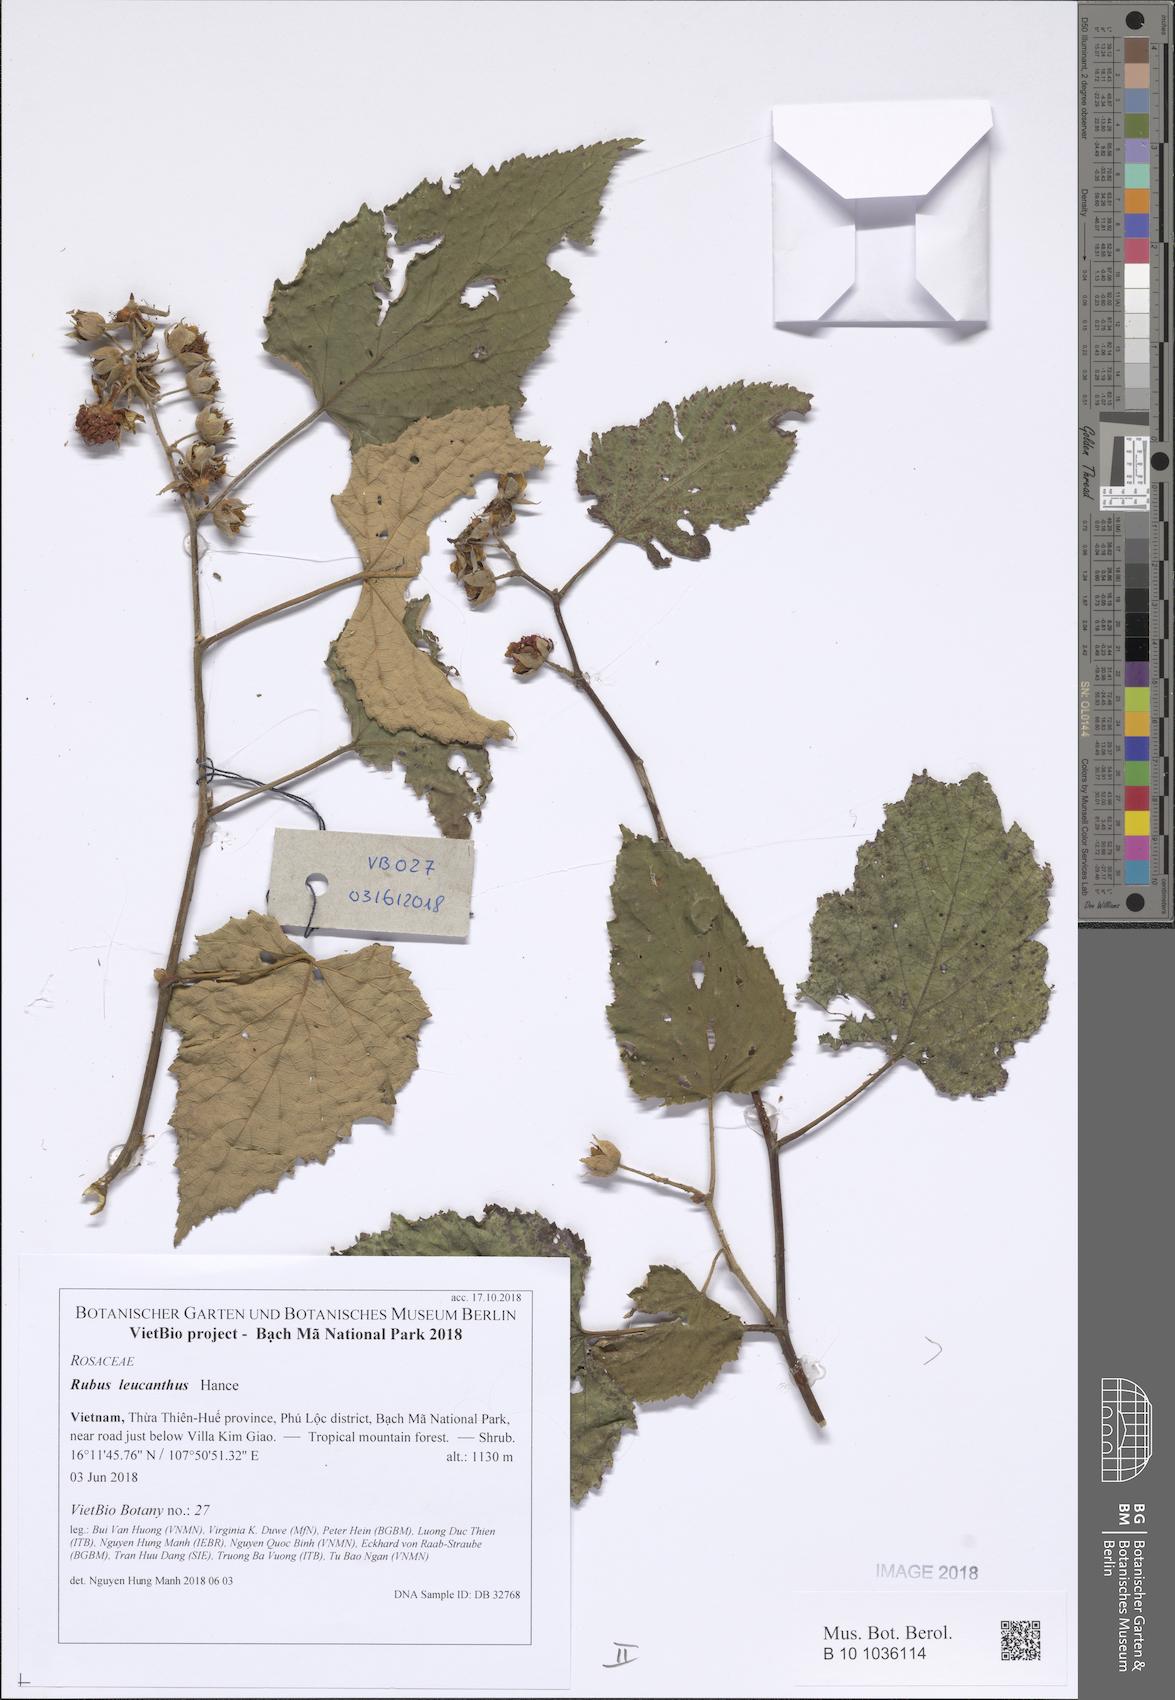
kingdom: Plantae
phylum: Tracheophyta
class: Magnoliopsida
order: Rosales
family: Rosaceae
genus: Rubus
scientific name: Rubus leucanthus
